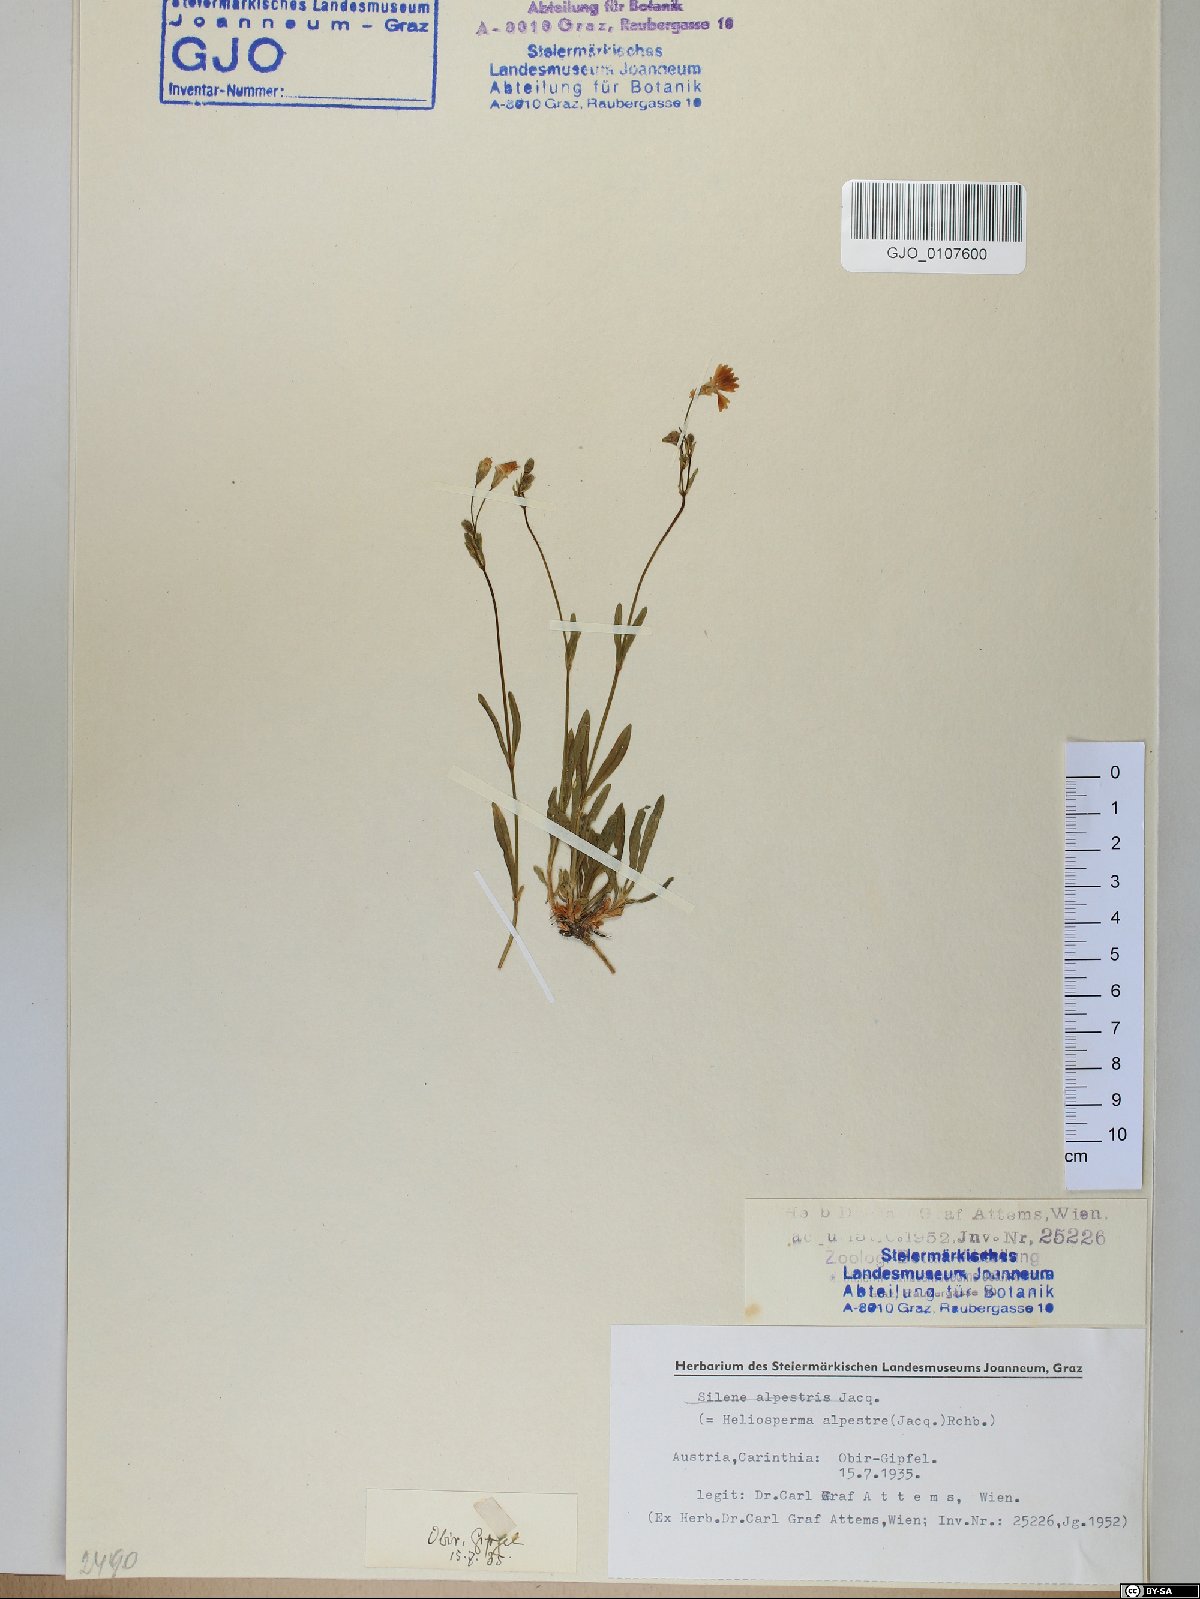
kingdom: Plantae
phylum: Tracheophyta
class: Magnoliopsida
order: Caryophyllales
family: Caryophyllaceae
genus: Heliosperma
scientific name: Heliosperma alpestre
